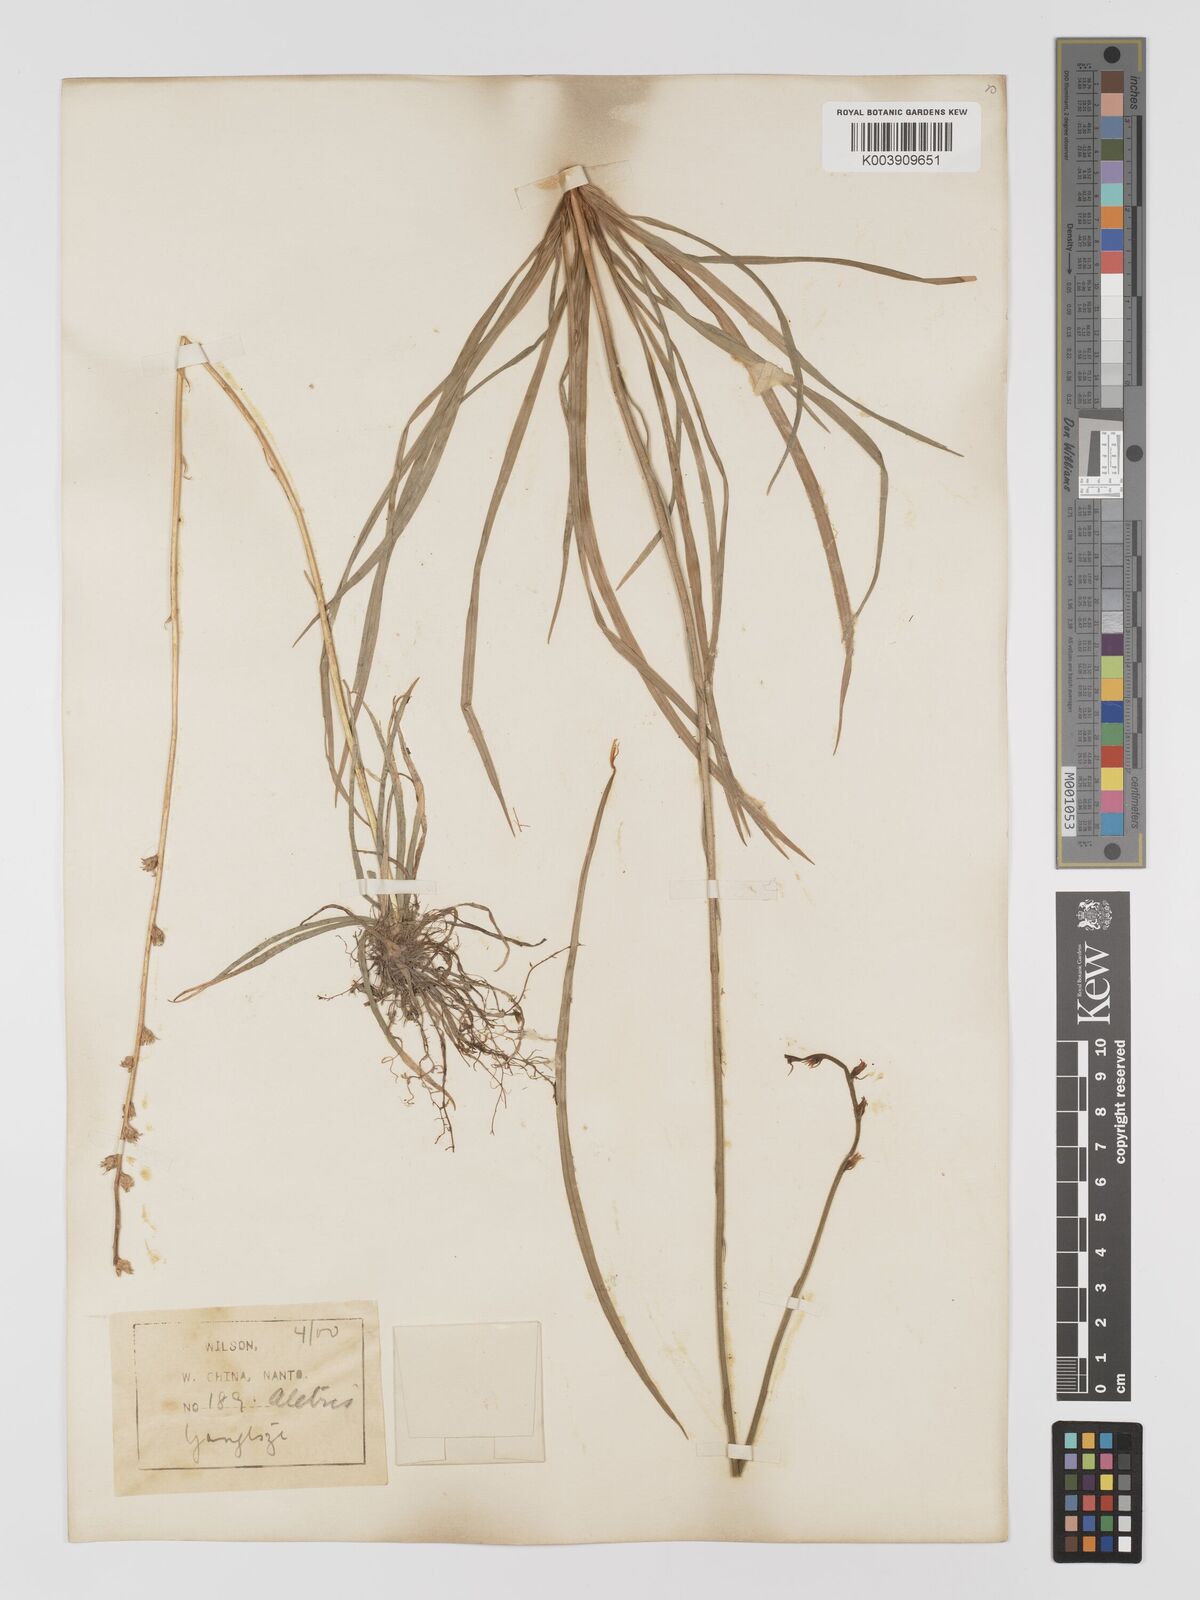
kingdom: Plantae
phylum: Tracheophyta
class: Liliopsida
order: Dioscoreales
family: Nartheciaceae
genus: Aletris
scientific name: Aletris spicata
